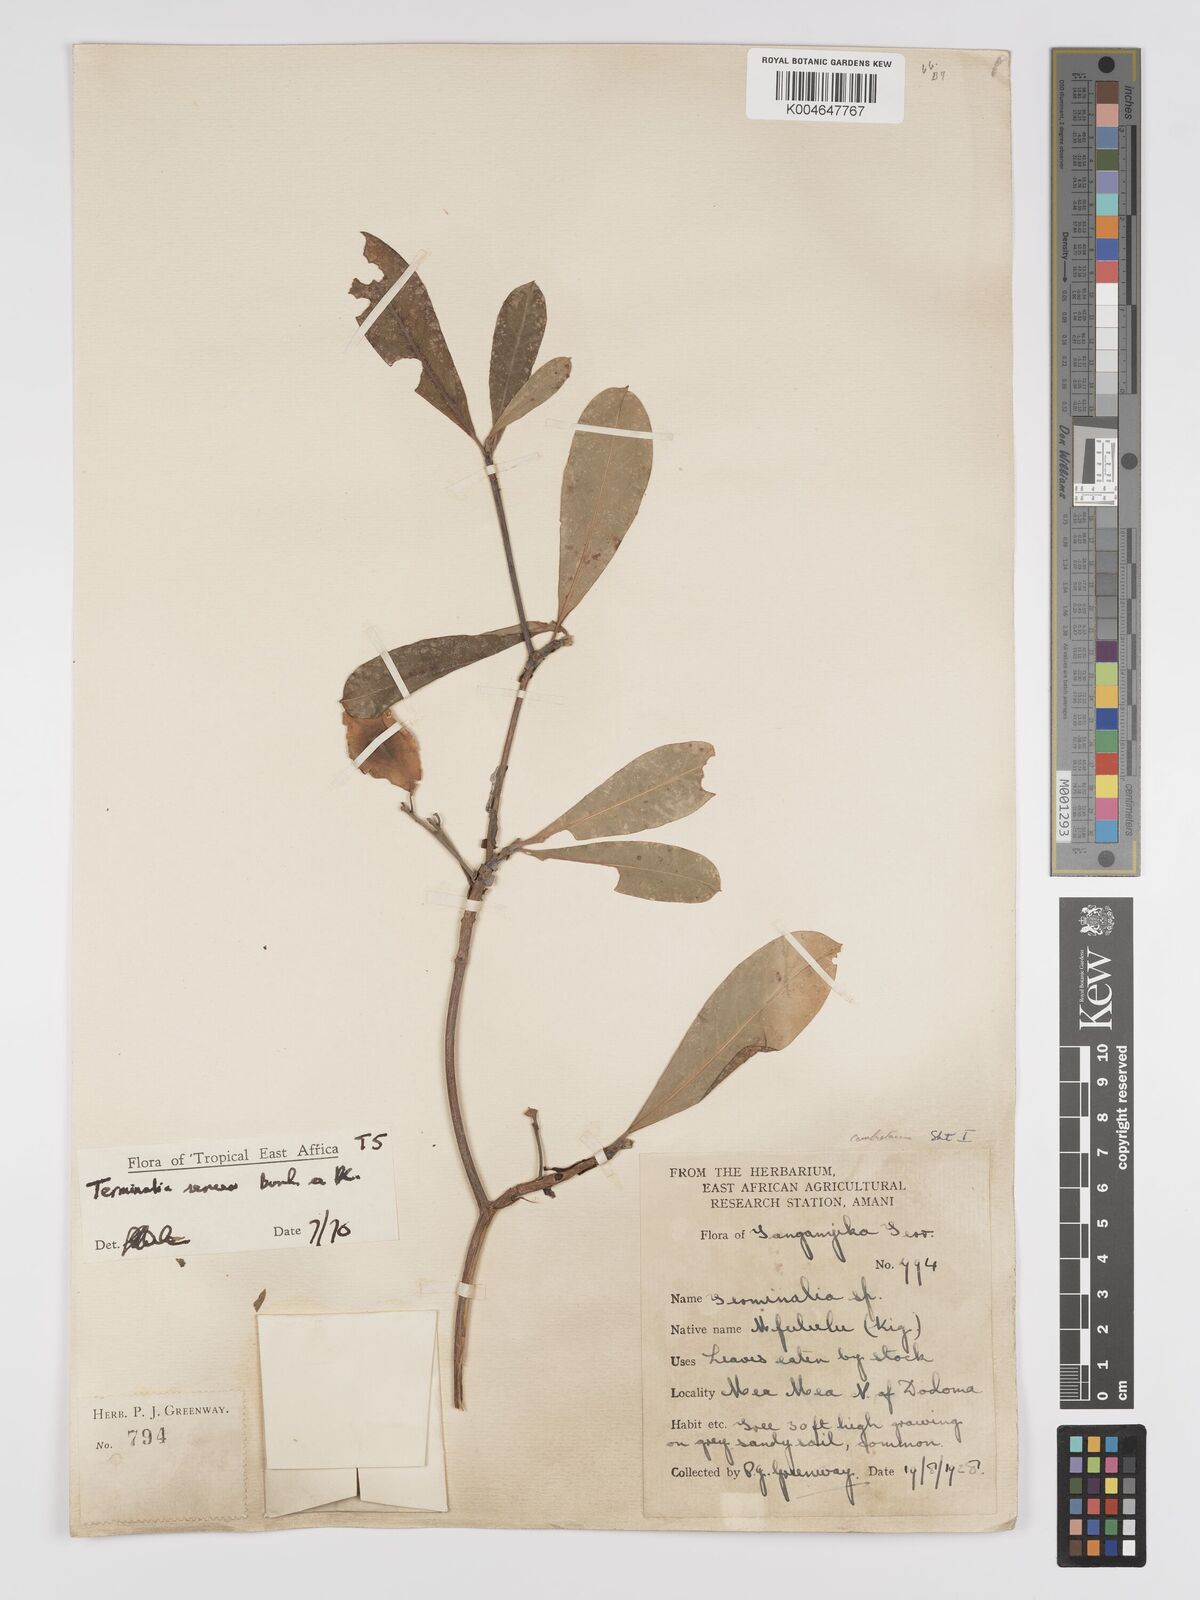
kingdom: Plantae
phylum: Tracheophyta
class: Magnoliopsida
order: Myrtales
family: Combretaceae
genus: Terminalia
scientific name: Terminalia
